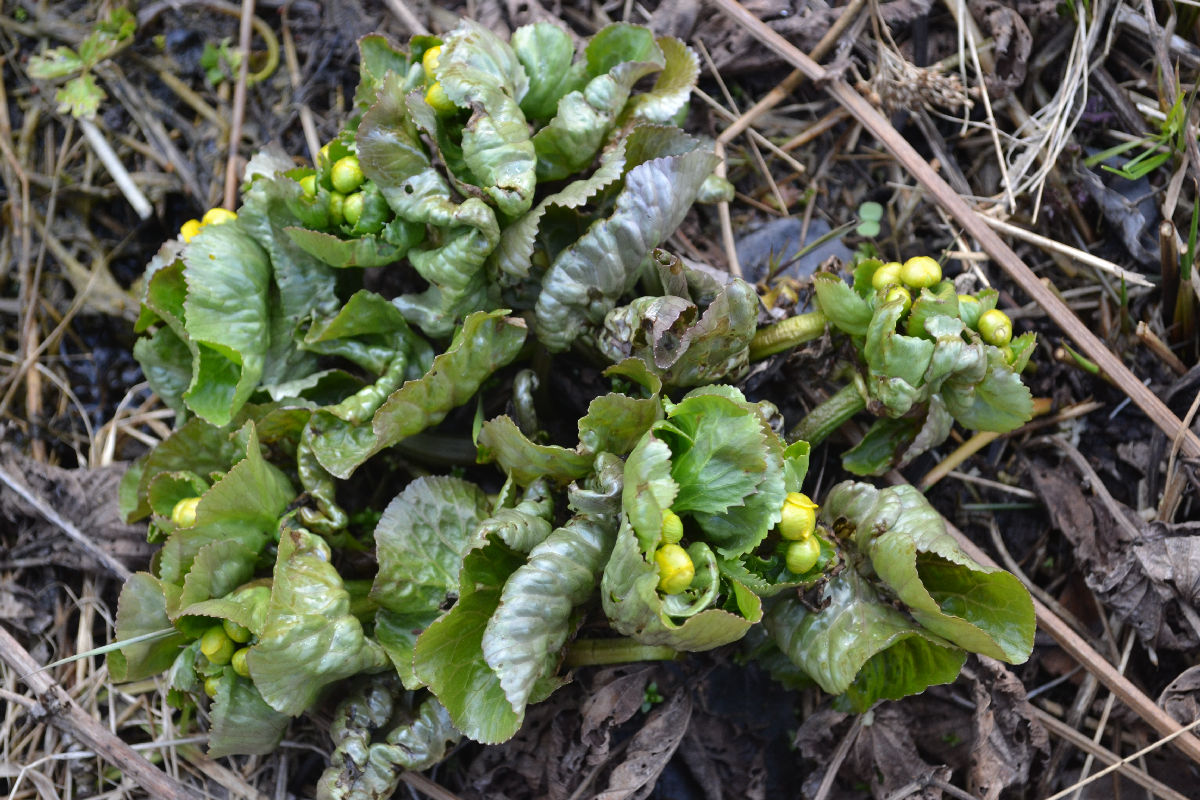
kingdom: Plantae
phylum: Tracheophyta
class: Magnoliopsida
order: Ranunculales
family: Ranunculaceae
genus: Caltha
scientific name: Caltha palustris
